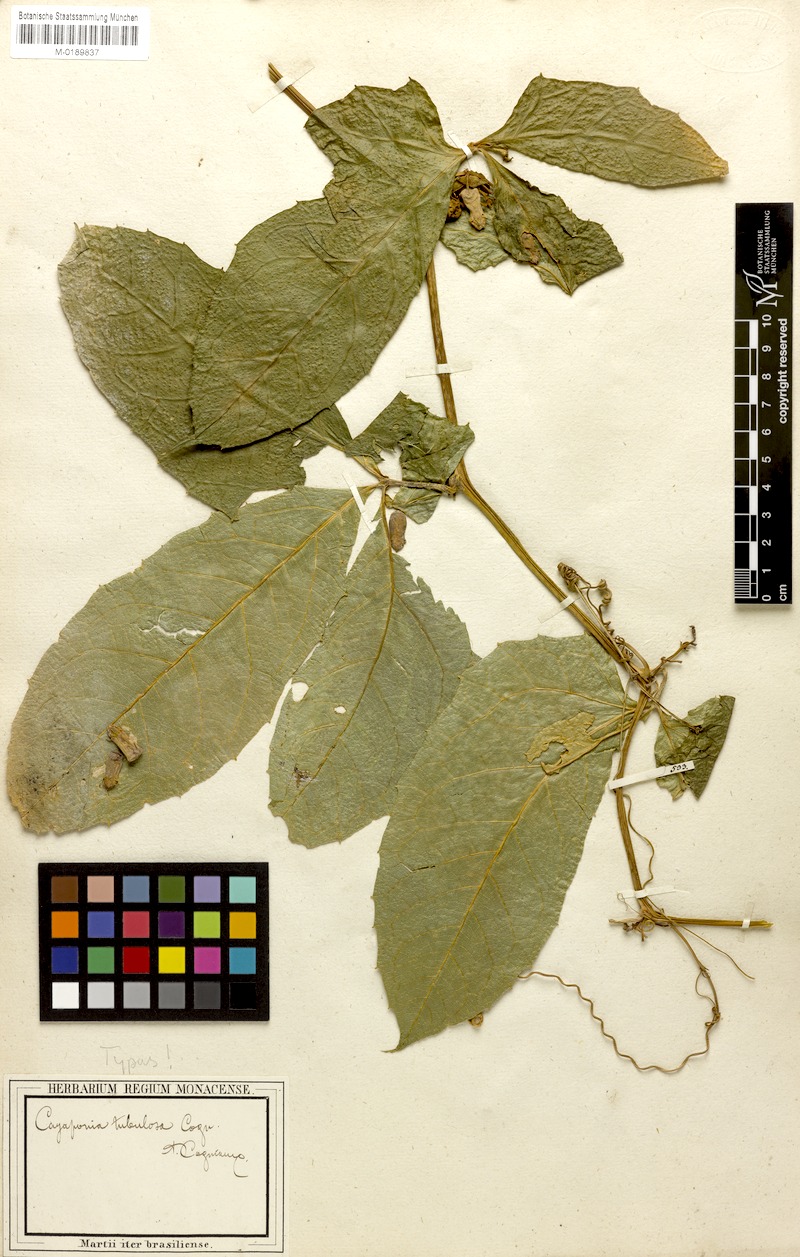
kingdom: Plantae
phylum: Tracheophyta
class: Magnoliopsida
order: Cucurbitales
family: Cucurbitaceae
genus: Cayaponia
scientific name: Cayaponia tubulosa
